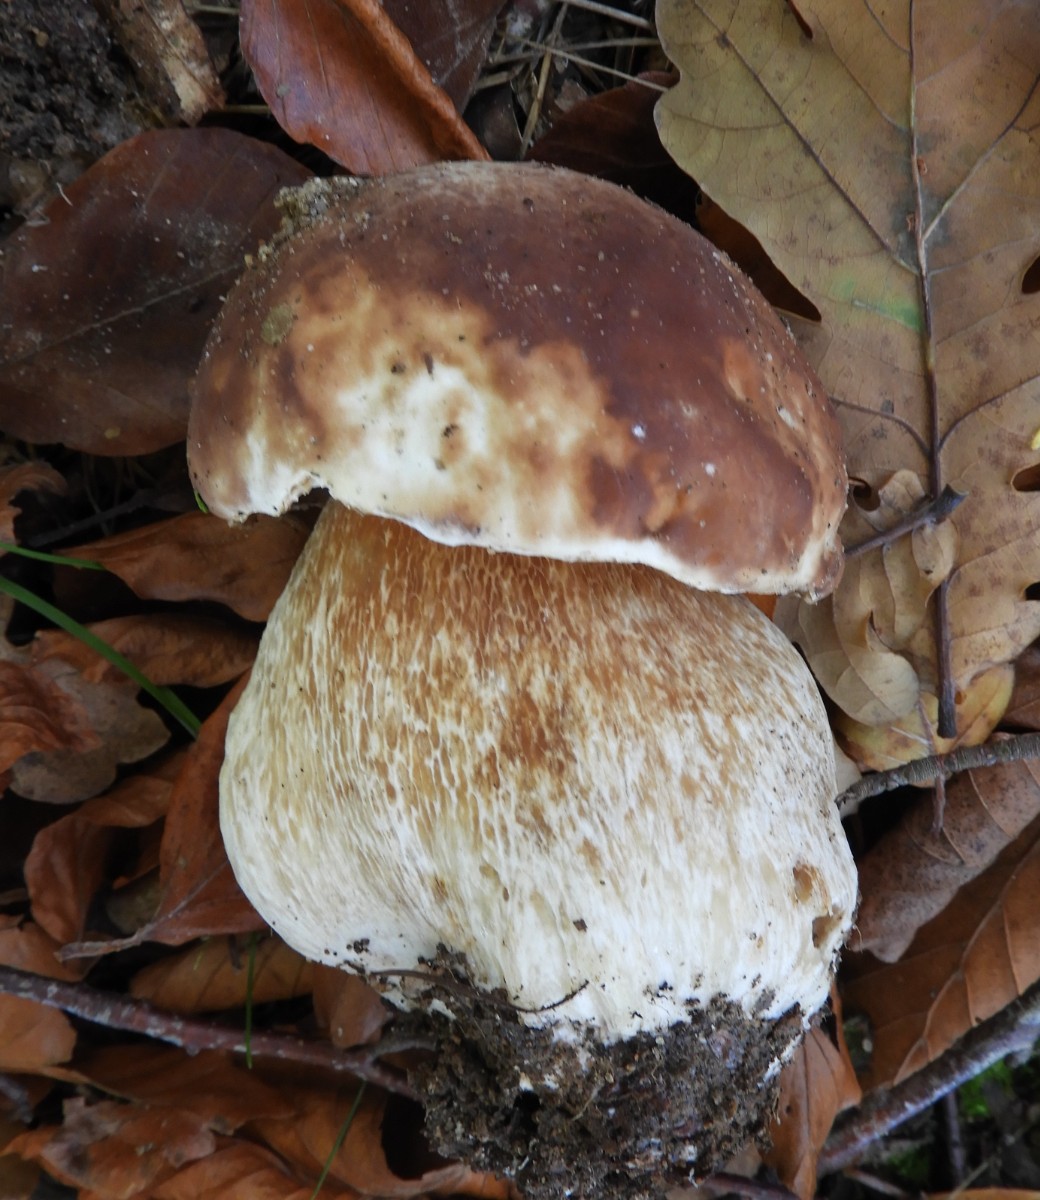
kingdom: Fungi
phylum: Basidiomycota
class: Agaricomycetes
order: Boletales
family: Boletaceae
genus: Boletus
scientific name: Boletus edulis
